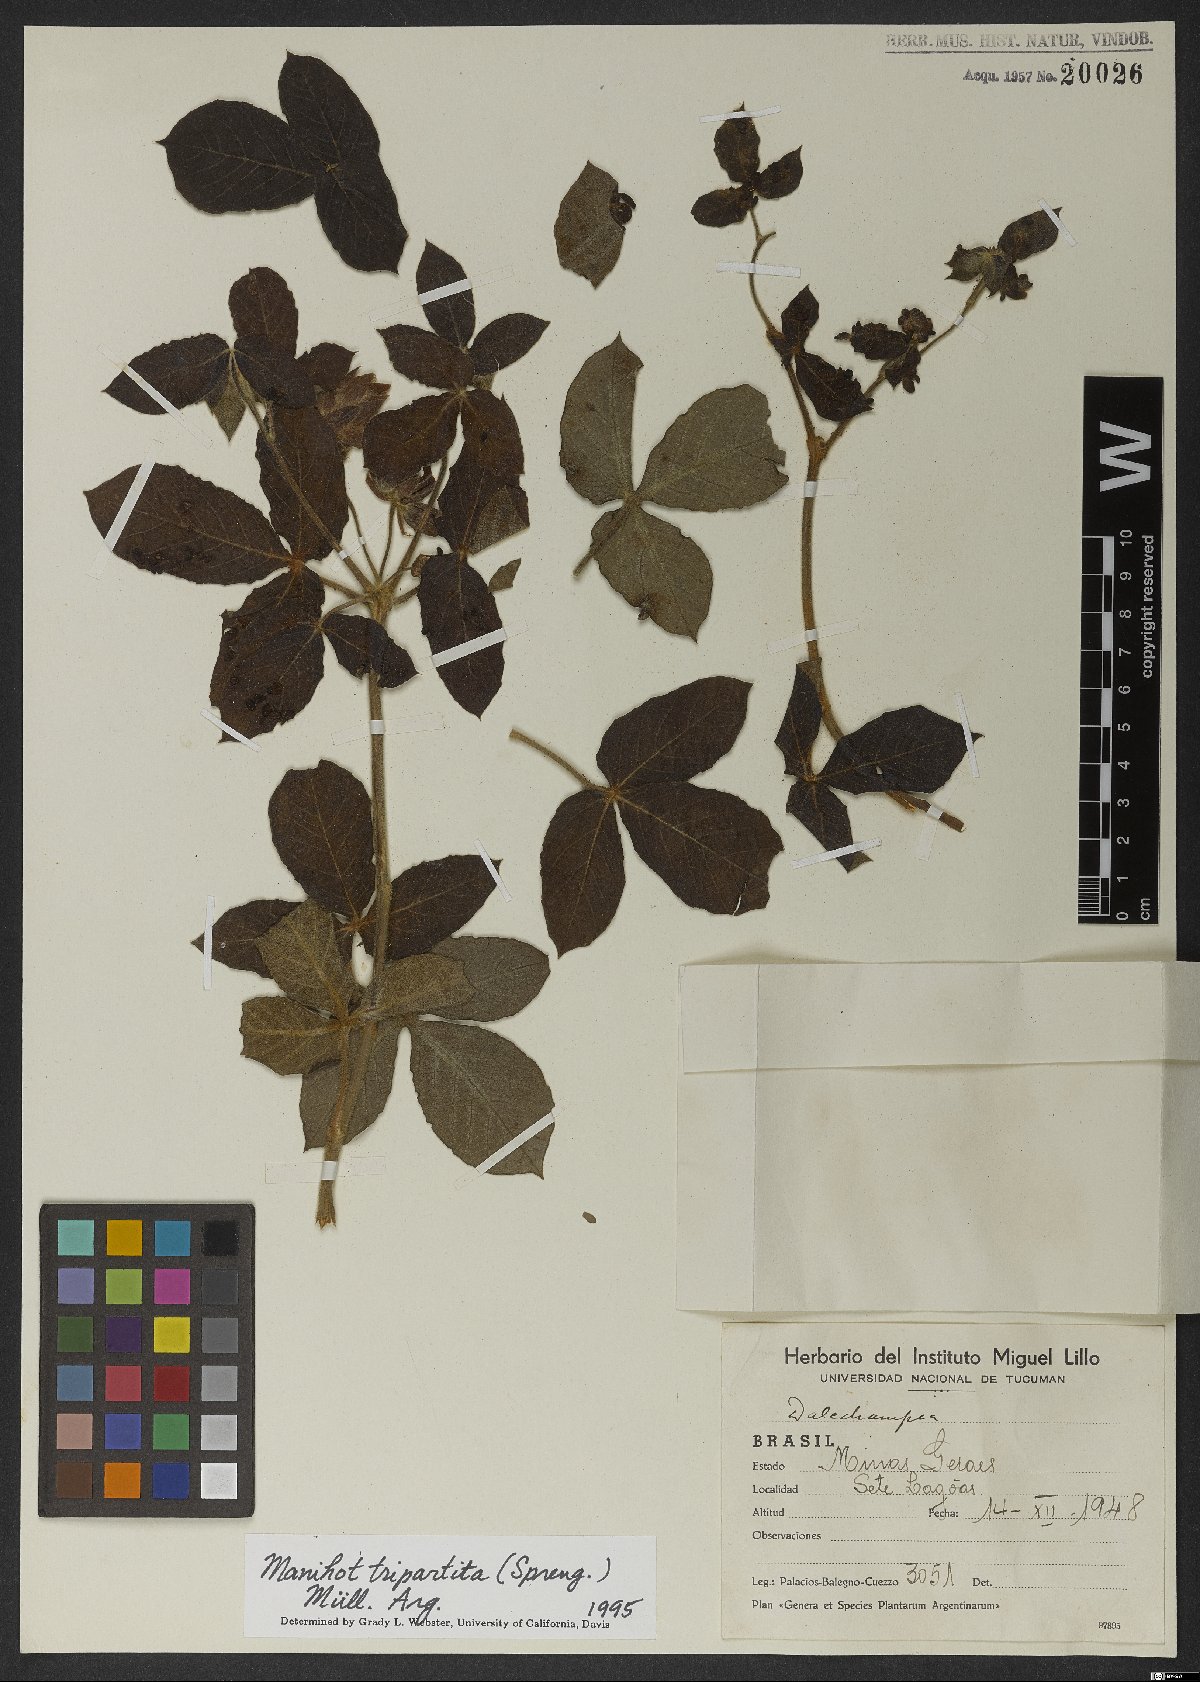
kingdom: Plantae
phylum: Tracheophyta
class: Magnoliopsida
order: Malpighiales
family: Euphorbiaceae
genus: Manihot
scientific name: Manihot tripartita
